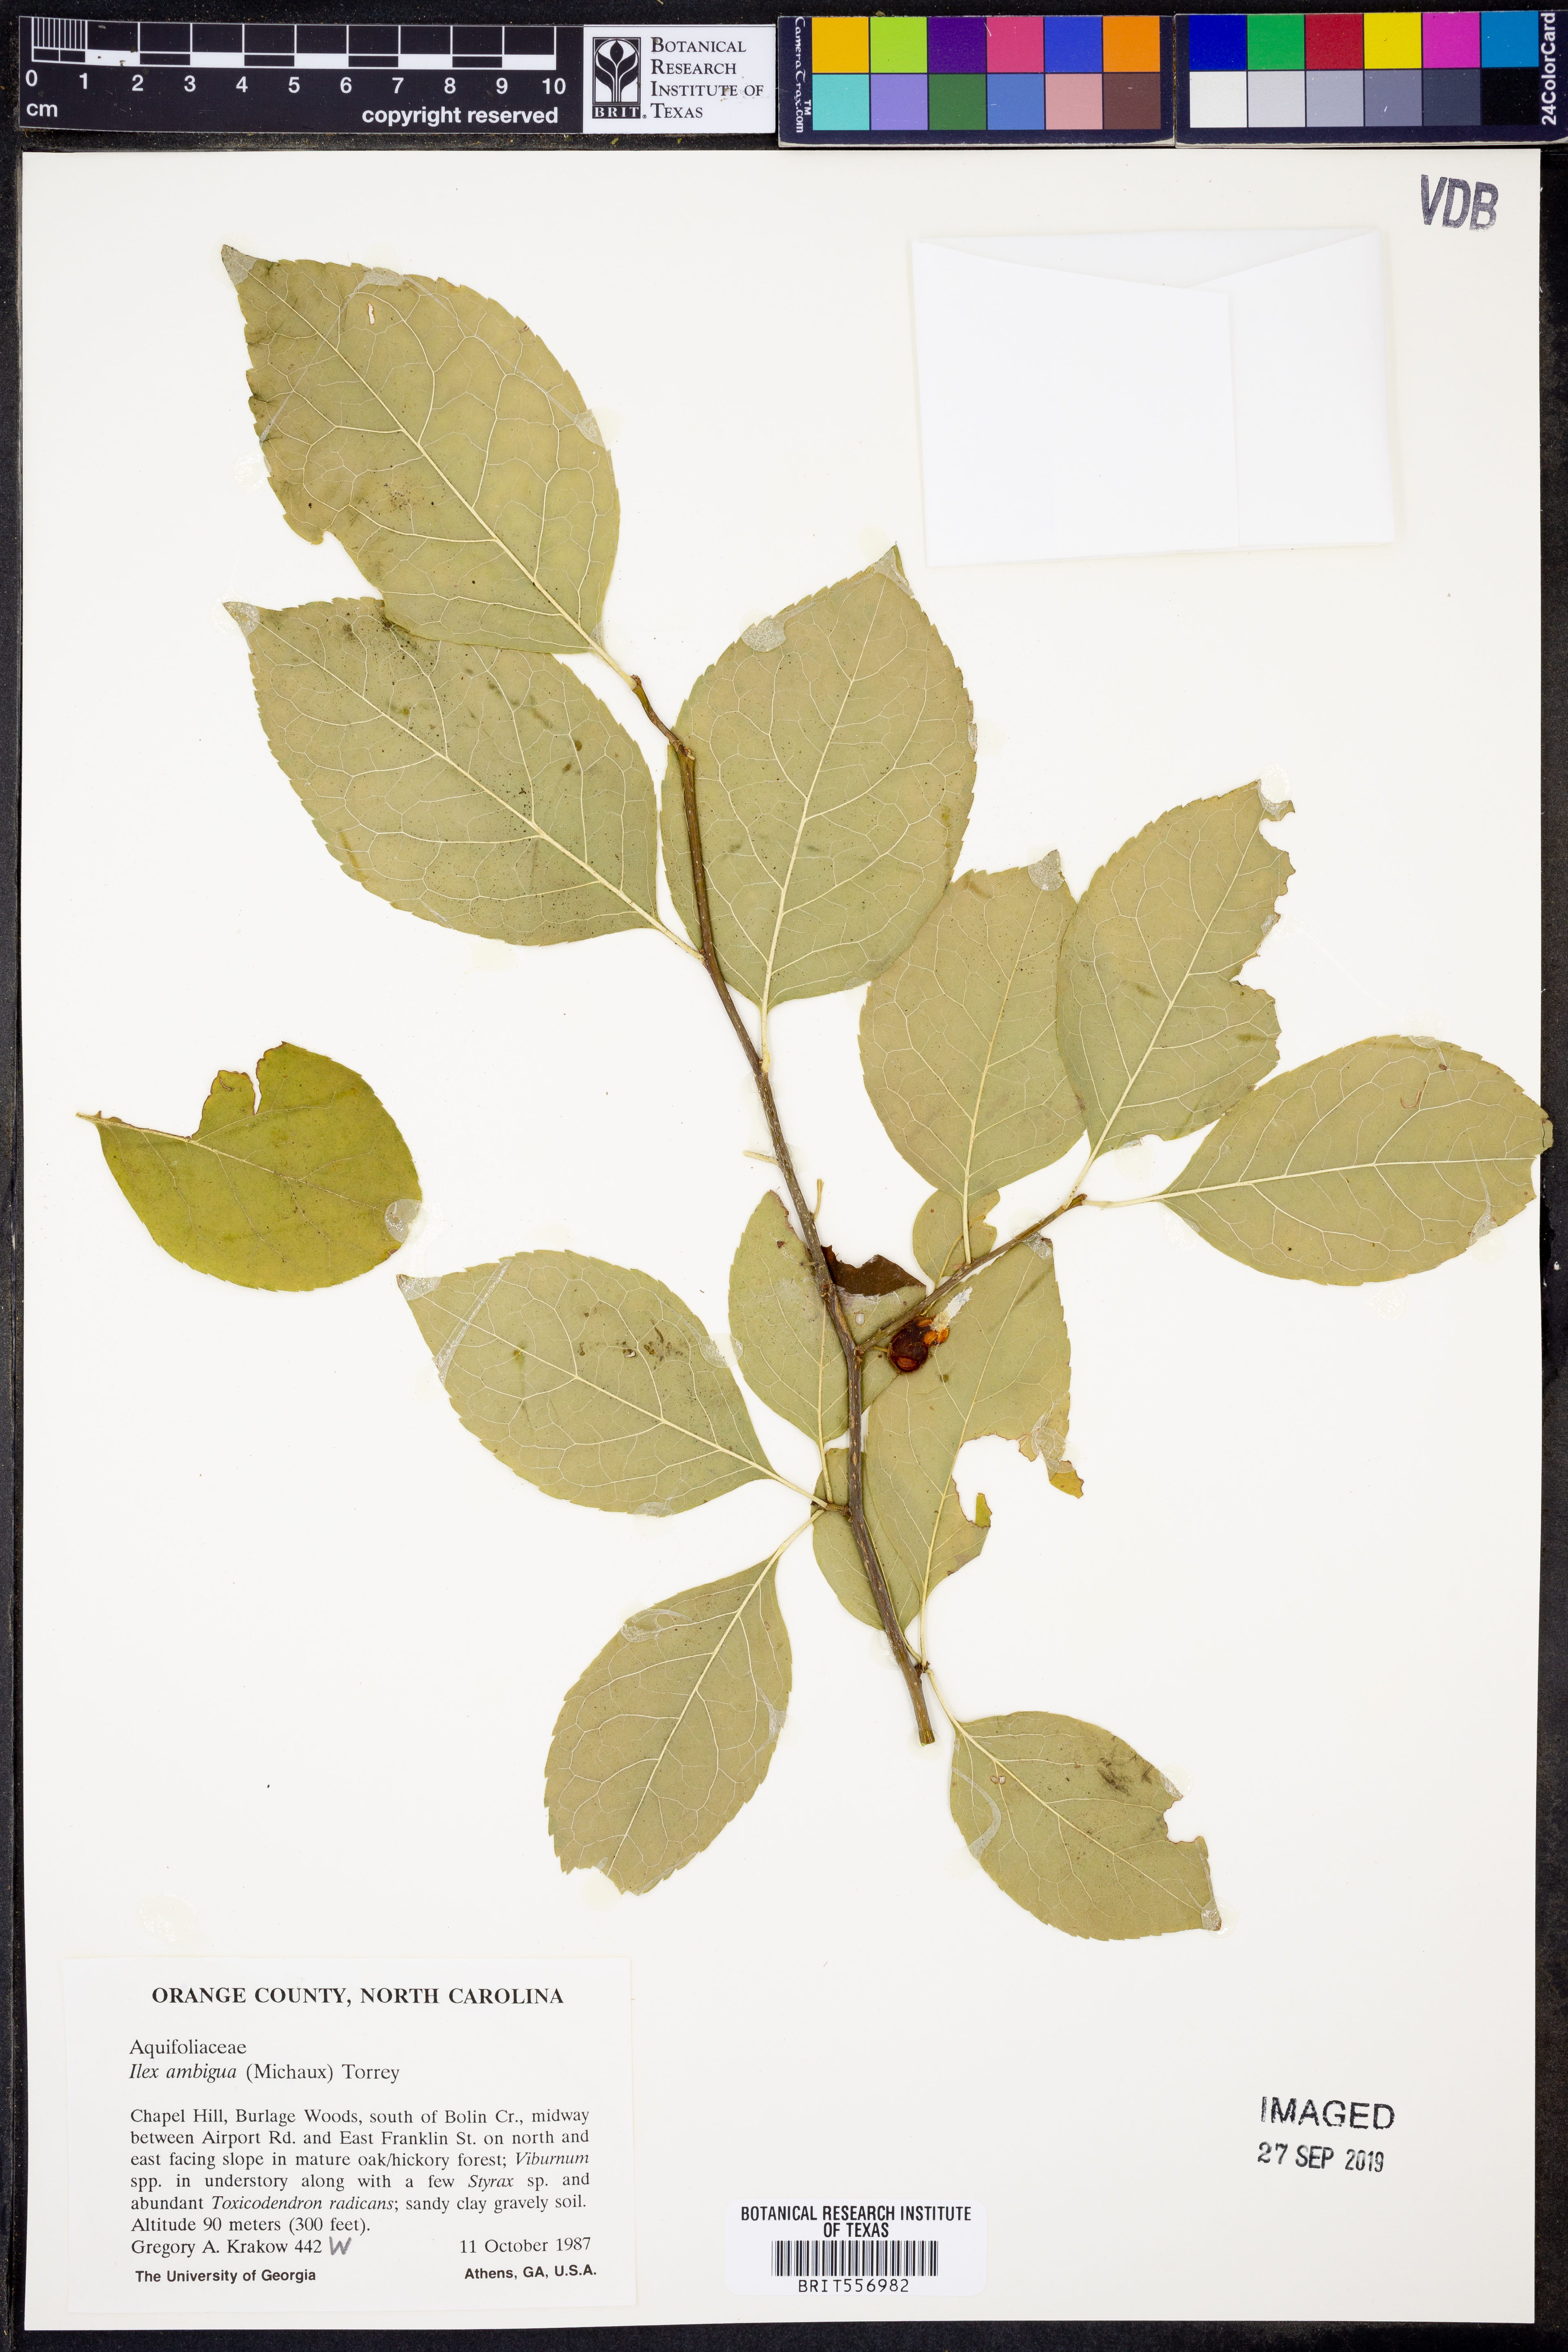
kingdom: Plantae
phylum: Tracheophyta
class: Magnoliopsida
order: Aquifoliales
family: Aquifoliaceae
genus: Ilex
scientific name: Ilex ambigua
